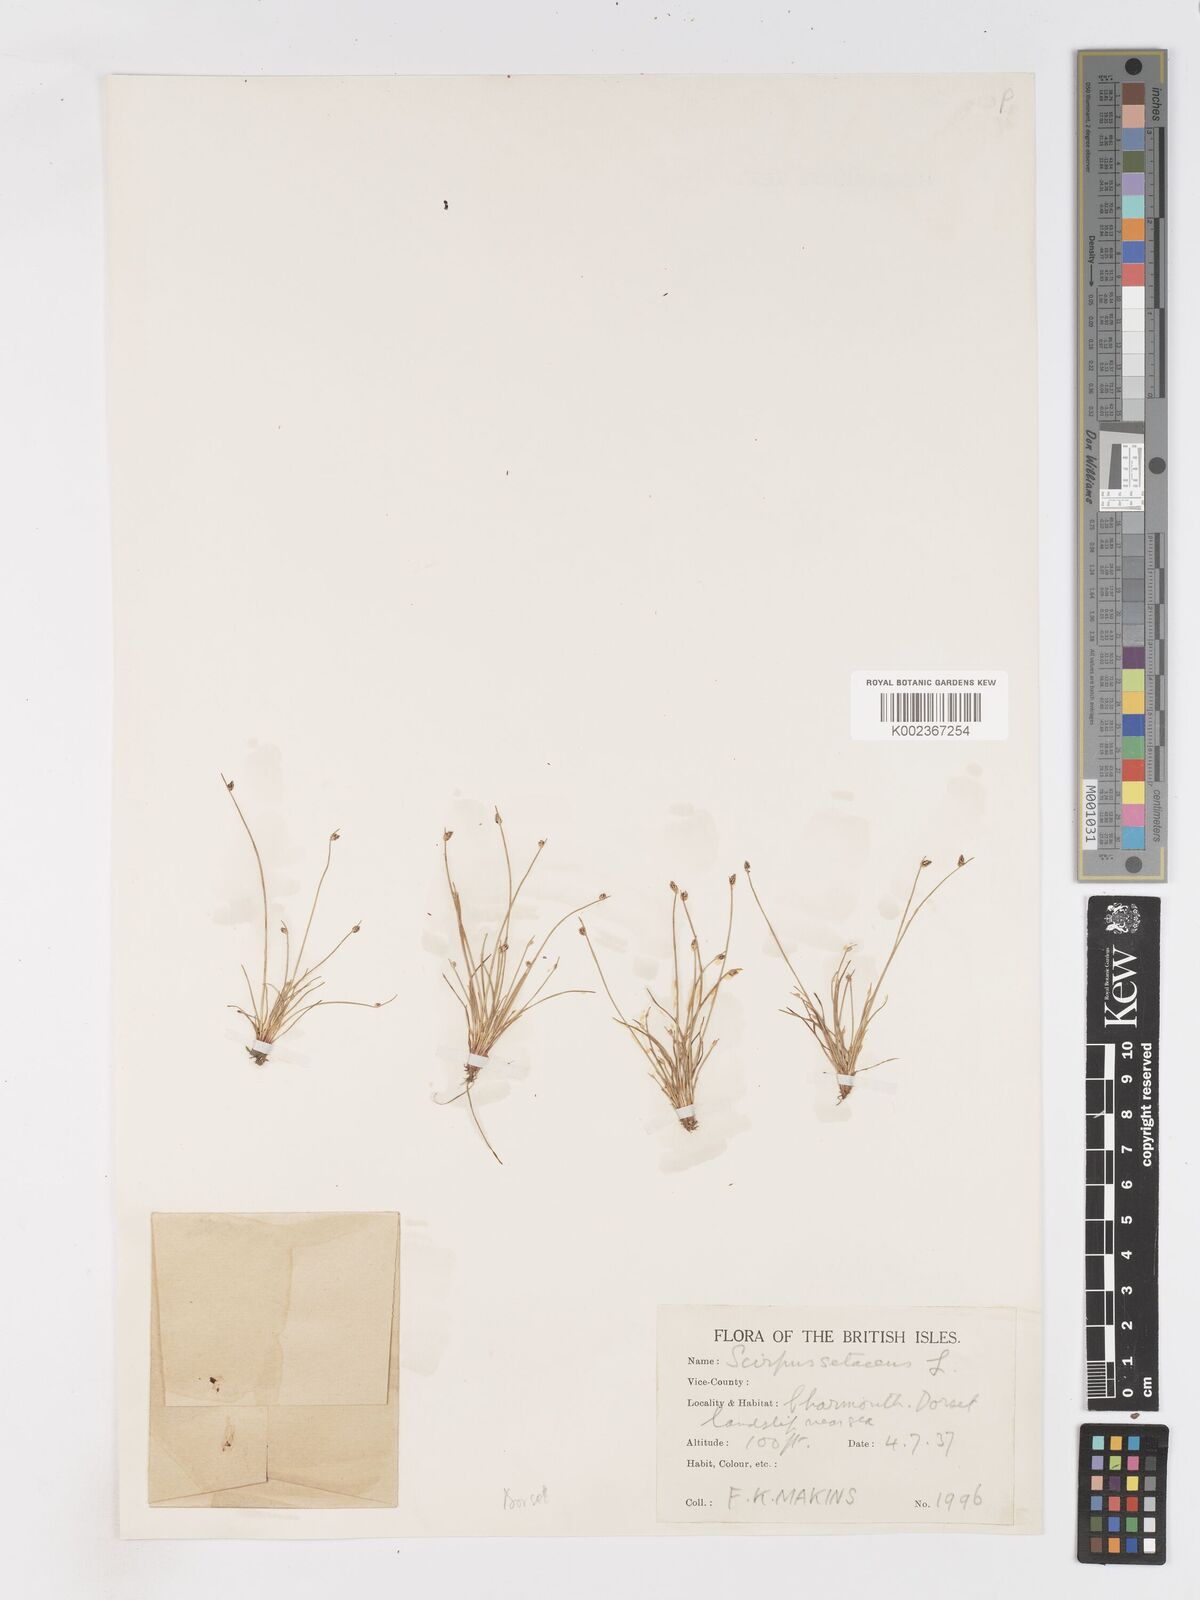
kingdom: Plantae
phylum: Tracheophyta
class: Liliopsida
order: Poales
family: Cyperaceae
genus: Isolepis
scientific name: Isolepis cernua
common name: Slender club-rush
